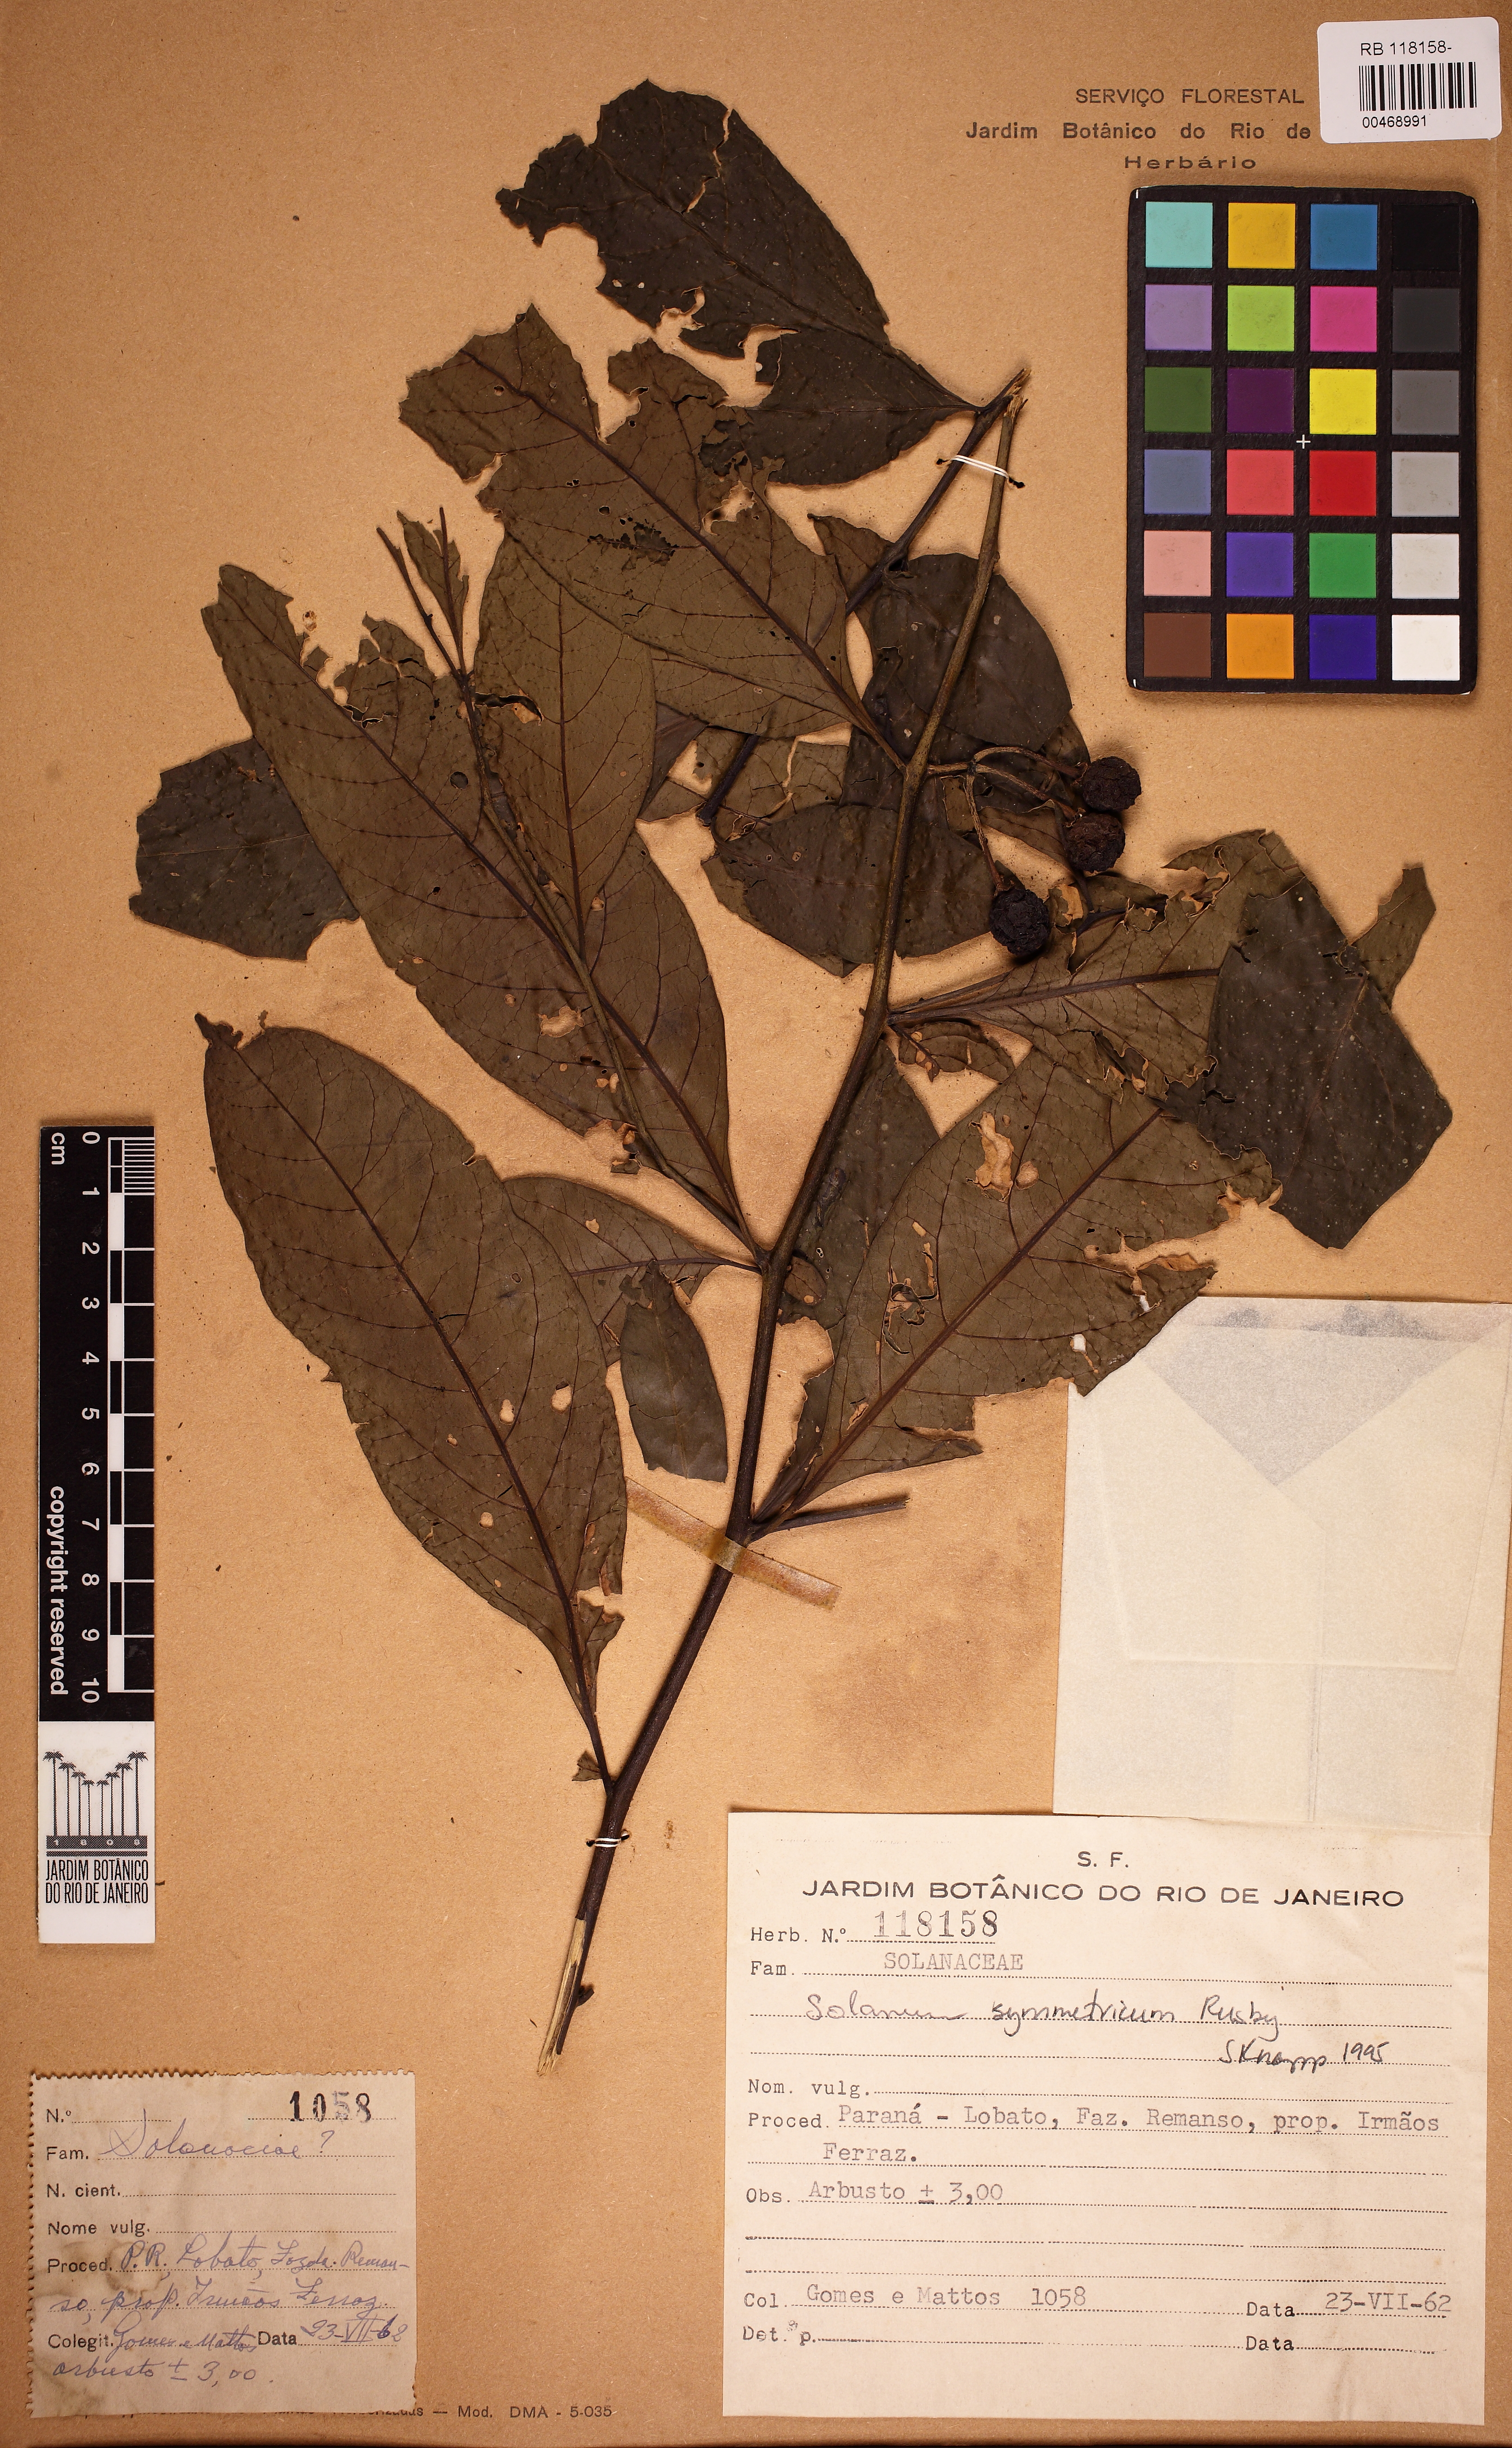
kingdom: Plantae
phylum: Tracheophyta
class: Magnoliopsida
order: Solanales
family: Solanaceae
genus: Solanum
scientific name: Solanum symmetricum
